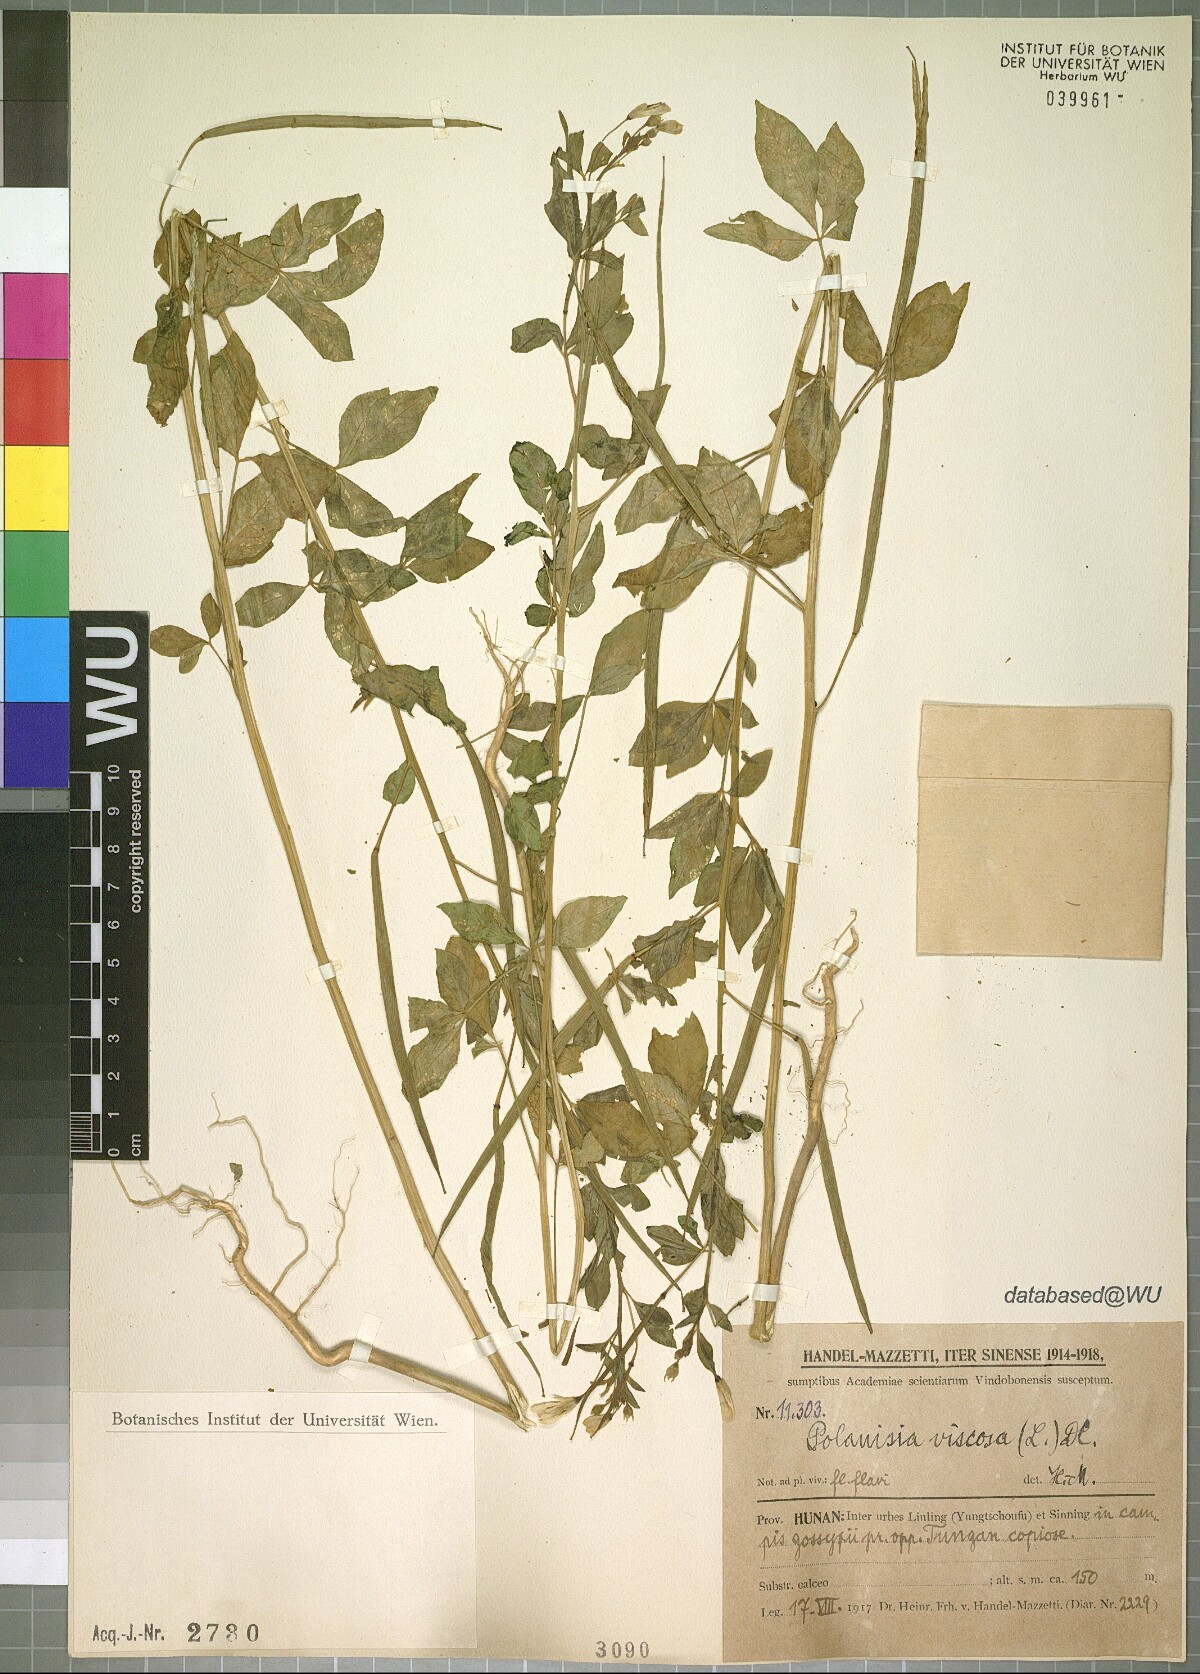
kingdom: Plantae
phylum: Tracheophyta
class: Magnoliopsida
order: Brassicales
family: Cleomaceae
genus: Arivela
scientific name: Arivela viscosa
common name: Asian spiderflower
